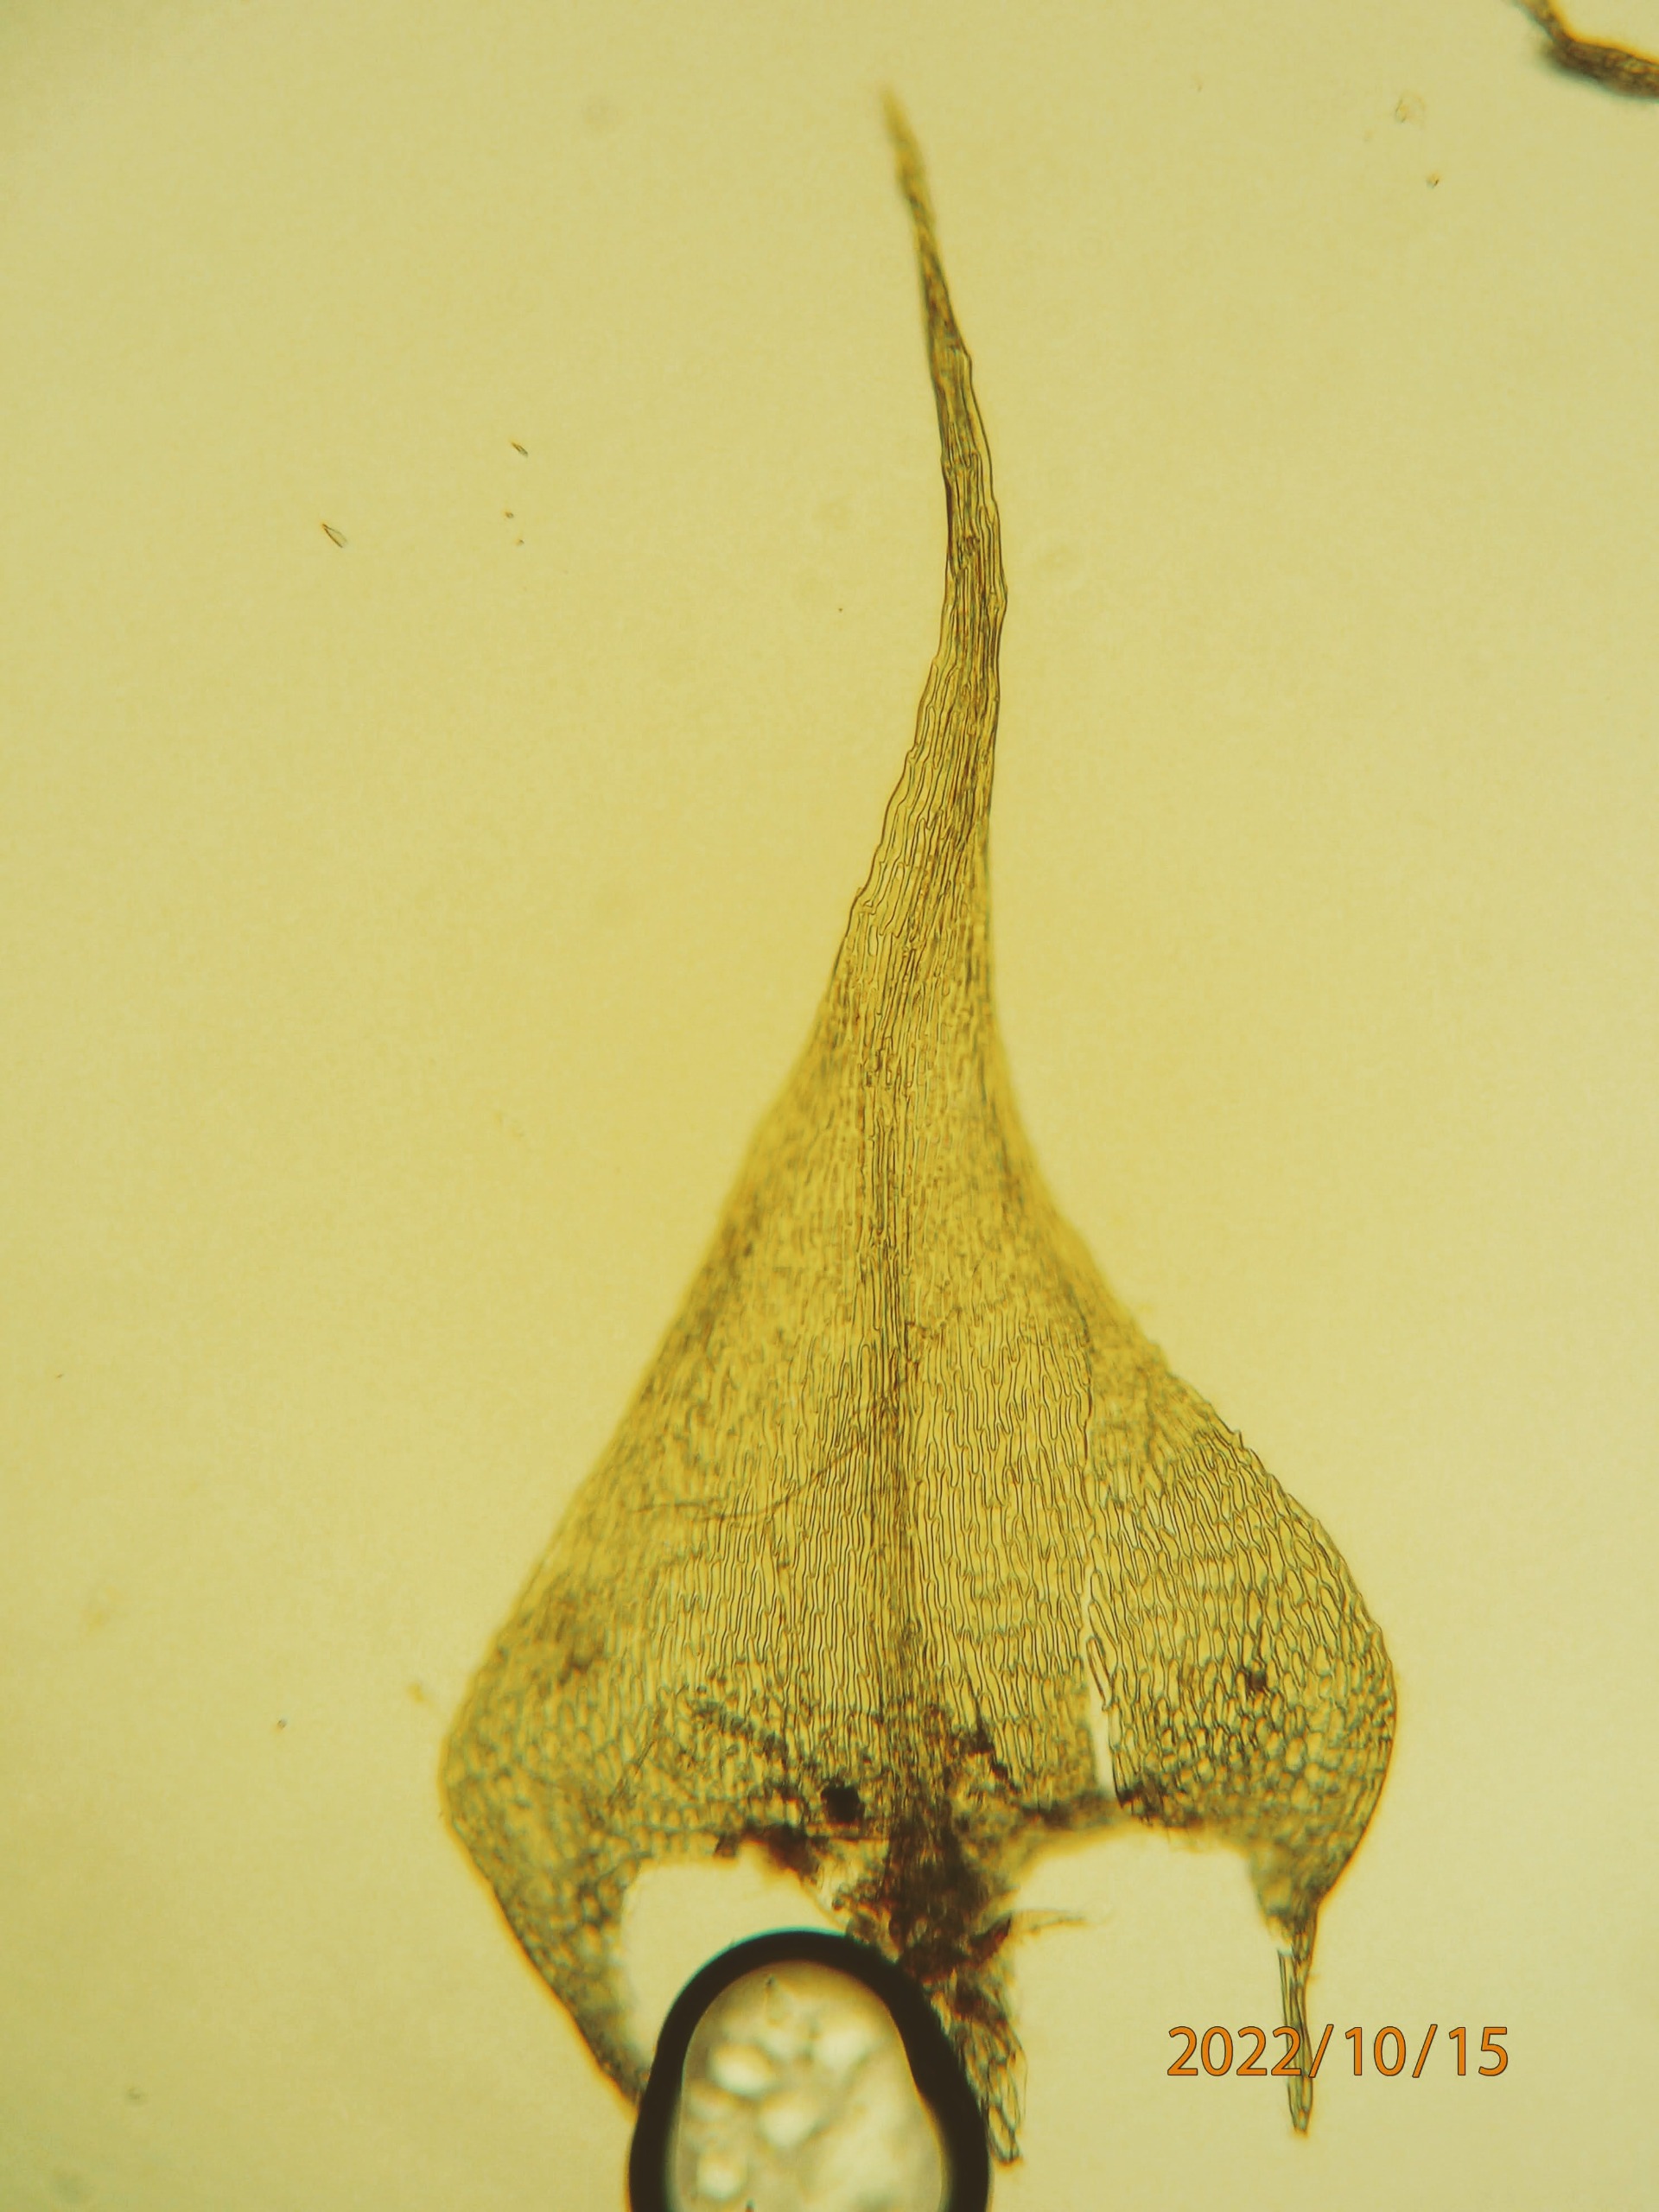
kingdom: Plantae
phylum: Bryophyta
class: Bryopsida
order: Hypnales
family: Brachytheciaceae
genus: Sciuro-hypnum
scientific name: Sciuro-hypnum reflexum
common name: Elle-kortkapsel
